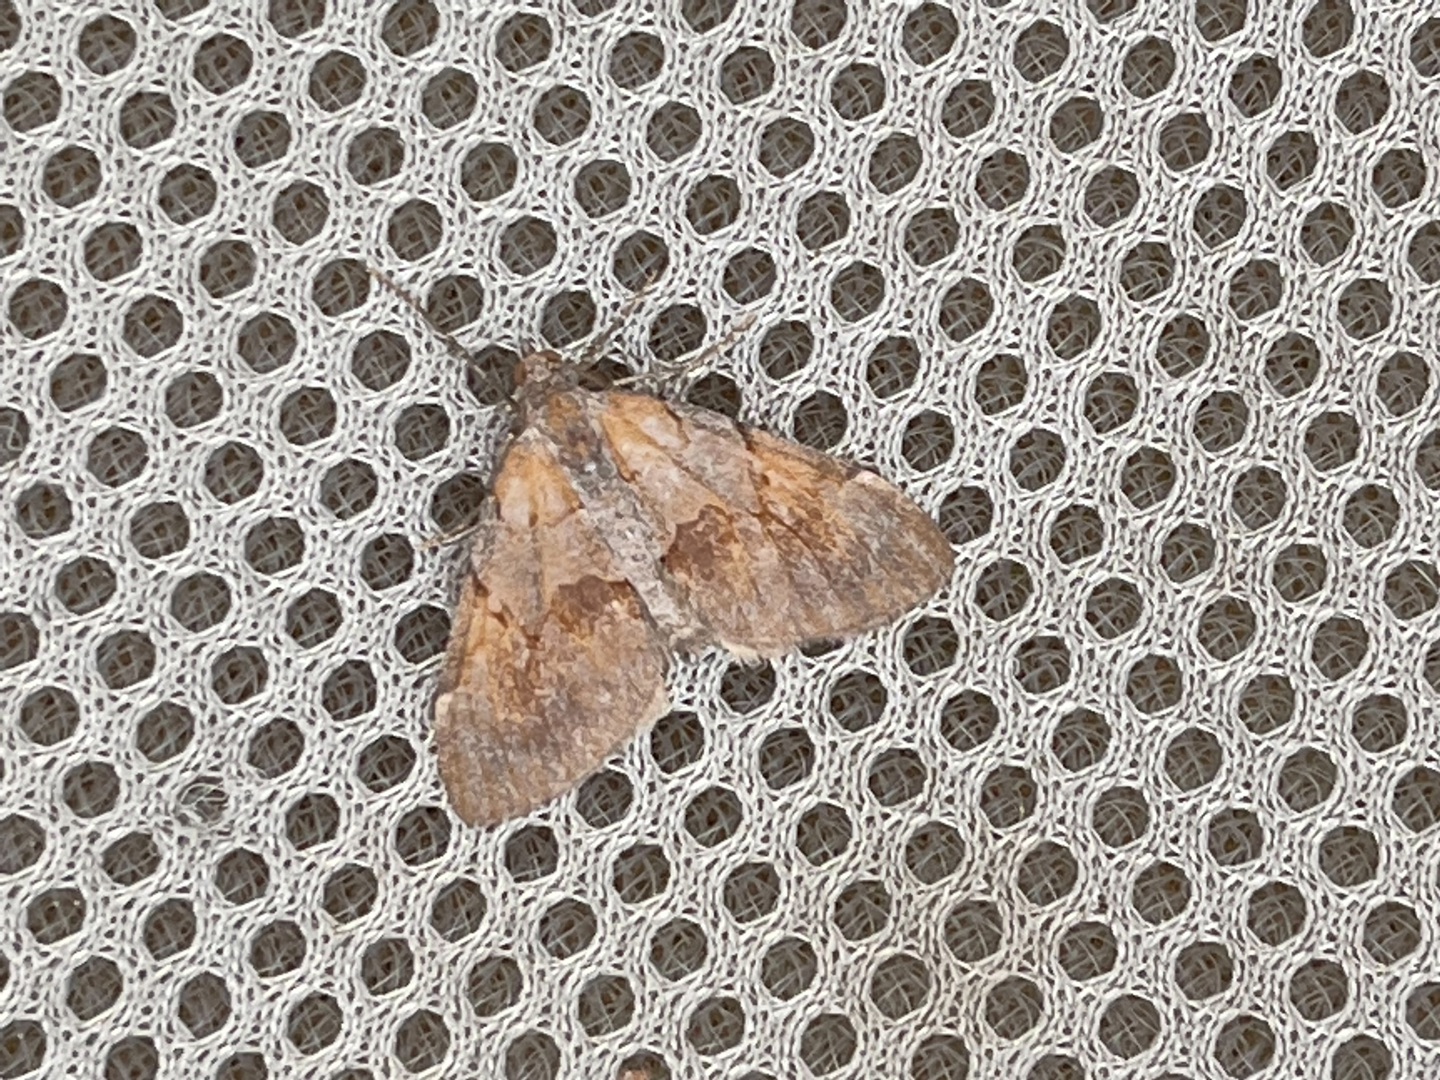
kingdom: Animalia
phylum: Arthropoda
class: Insecta
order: Lepidoptera
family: Geometridae
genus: Pennithera
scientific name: Pennithera firmata
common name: Rød fyrremåler
